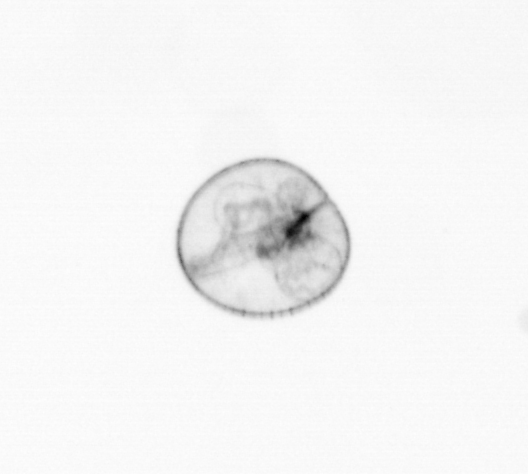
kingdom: Chromista
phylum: Myzozoa
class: Dinophyceae
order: Noctilucales
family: Noctilucaceae
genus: Noctiluca
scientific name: Noctiluca scintillans
